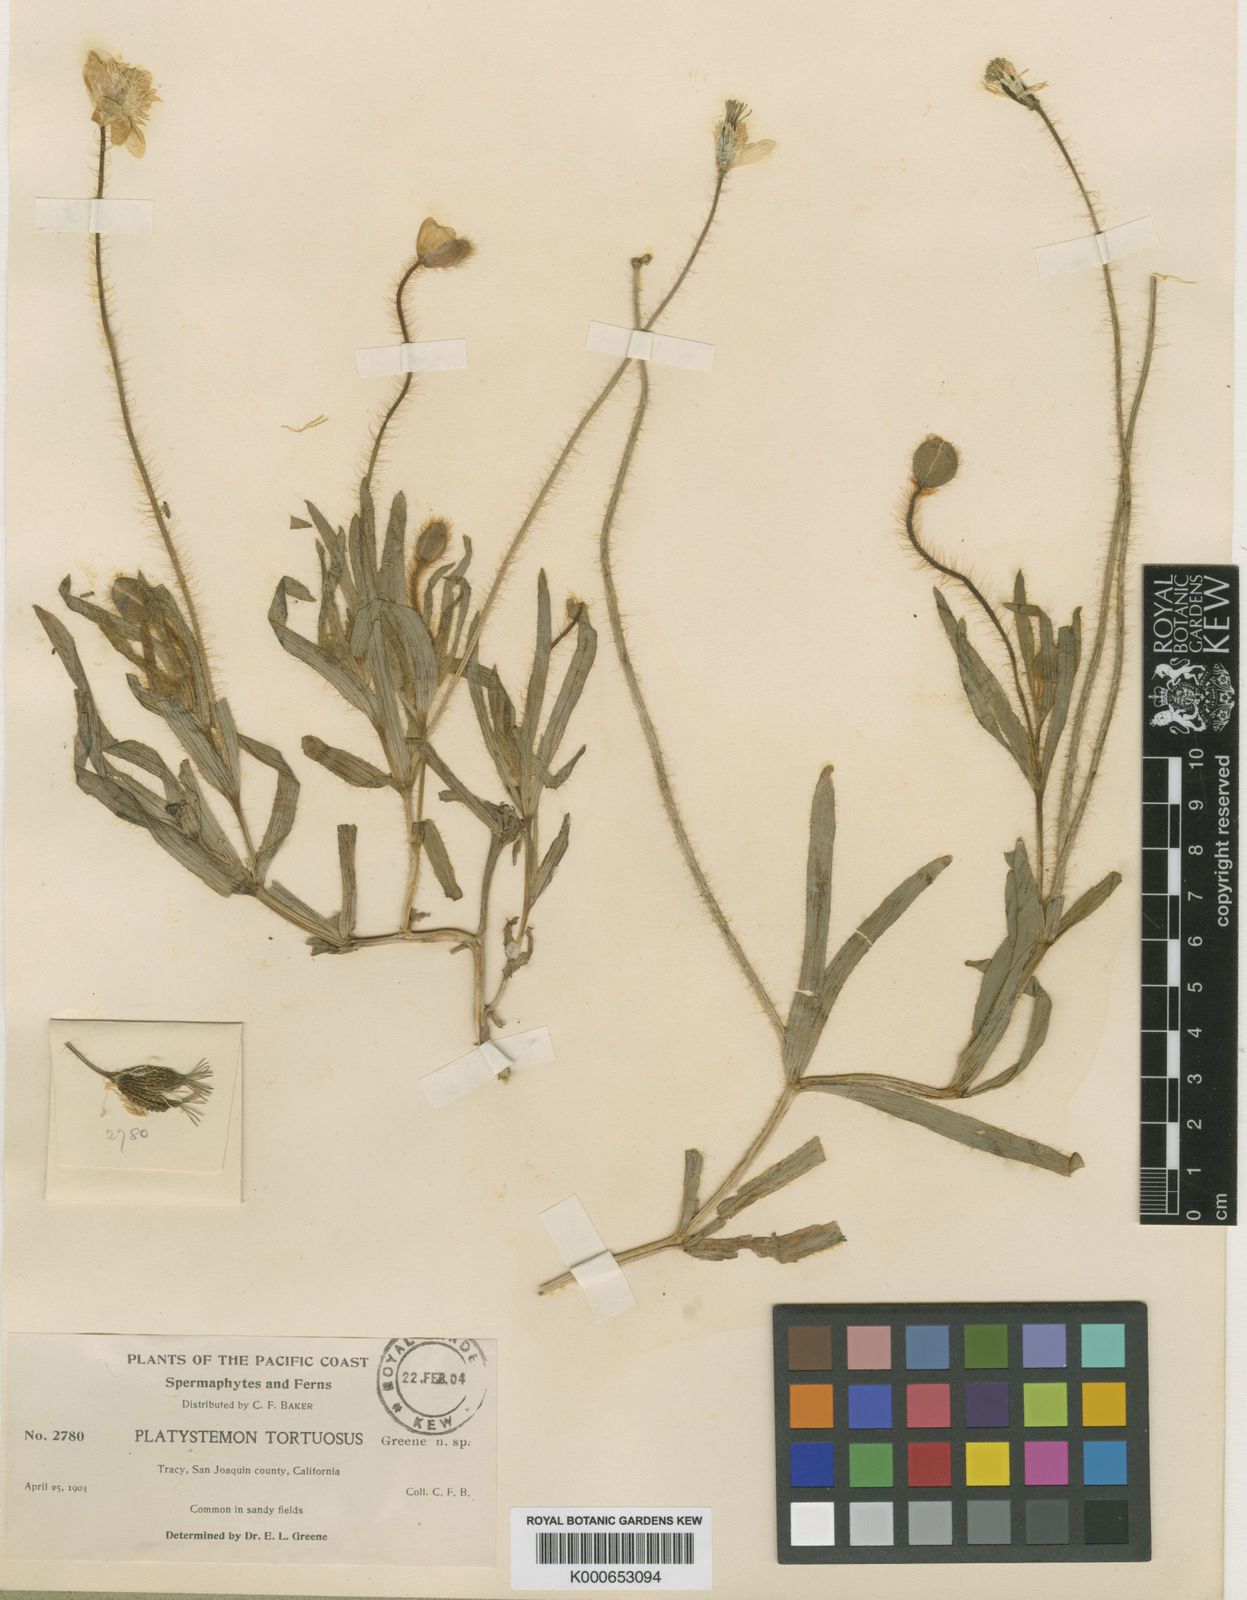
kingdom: Plantae
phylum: Tracheophyta
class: Magnoliopsida
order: Ranunculales
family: Papaveraceae
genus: Platystemon
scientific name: Platystemon californicus
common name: Cream-cups
